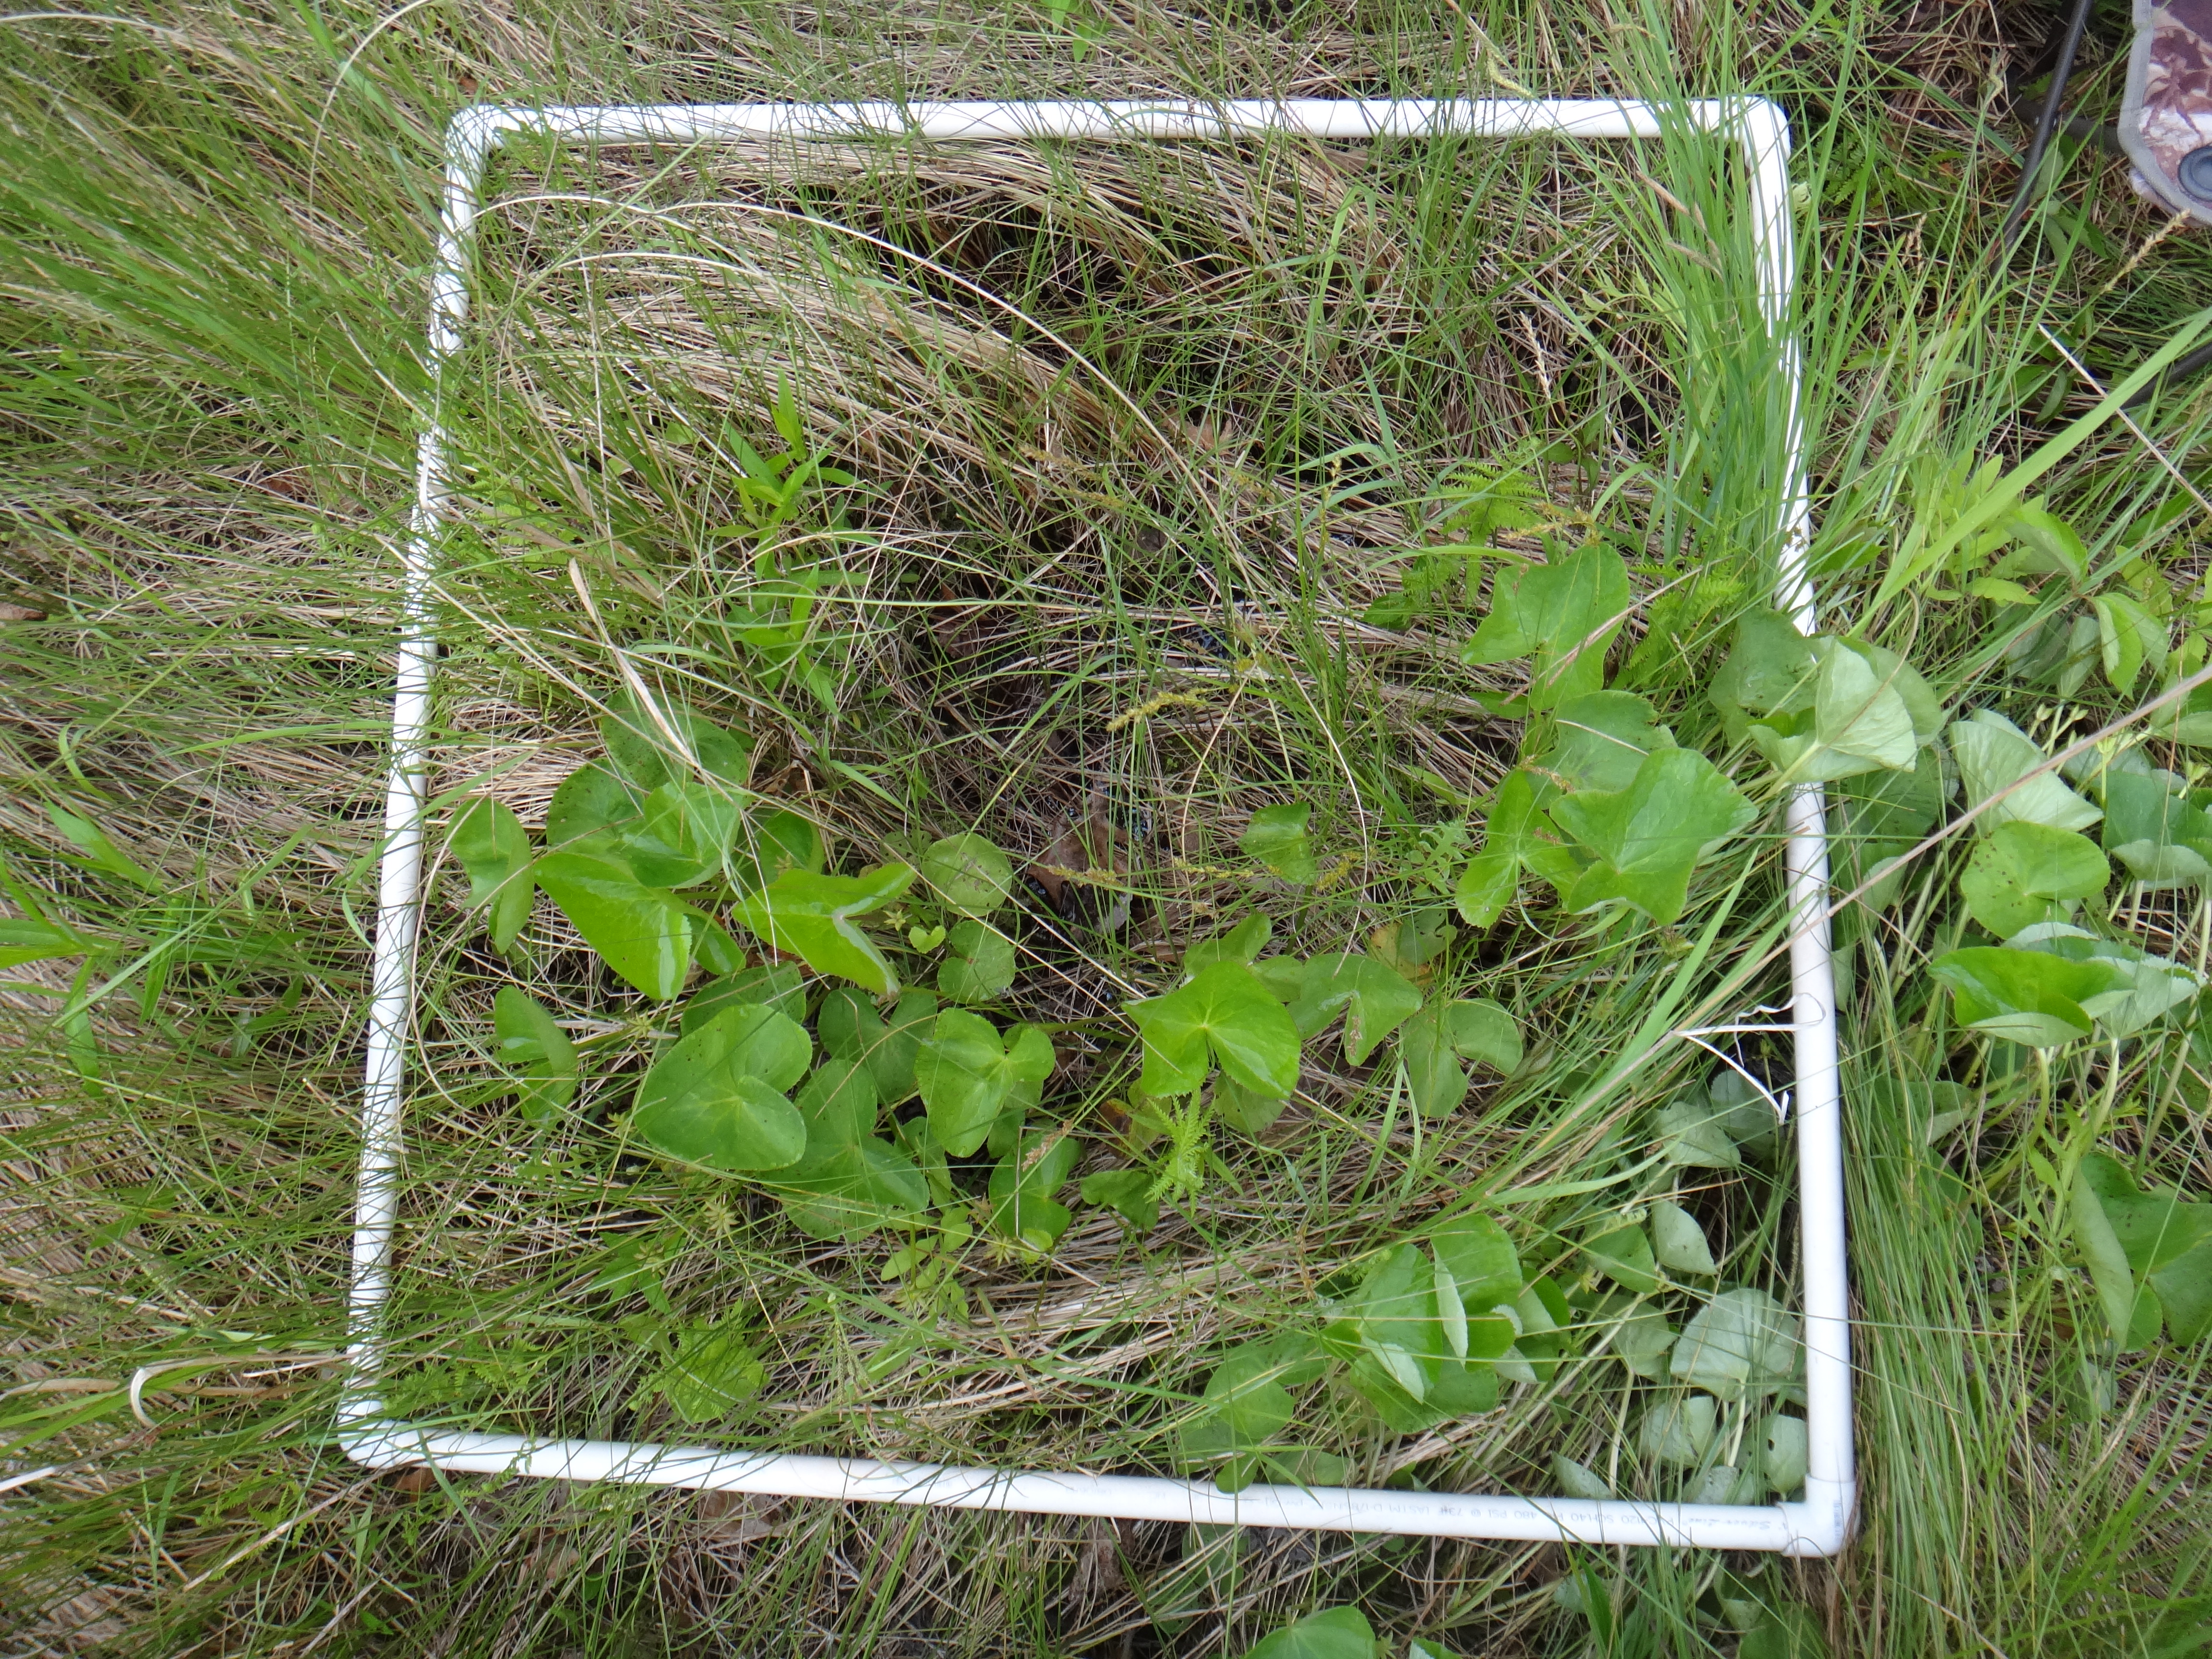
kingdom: Plantae
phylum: Tracheophyta
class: Magnoliopsida
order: Asterales
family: Campanulaceae
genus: Palustricodon
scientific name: Palustricodon aparinoides
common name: Bedstraw bellflower
